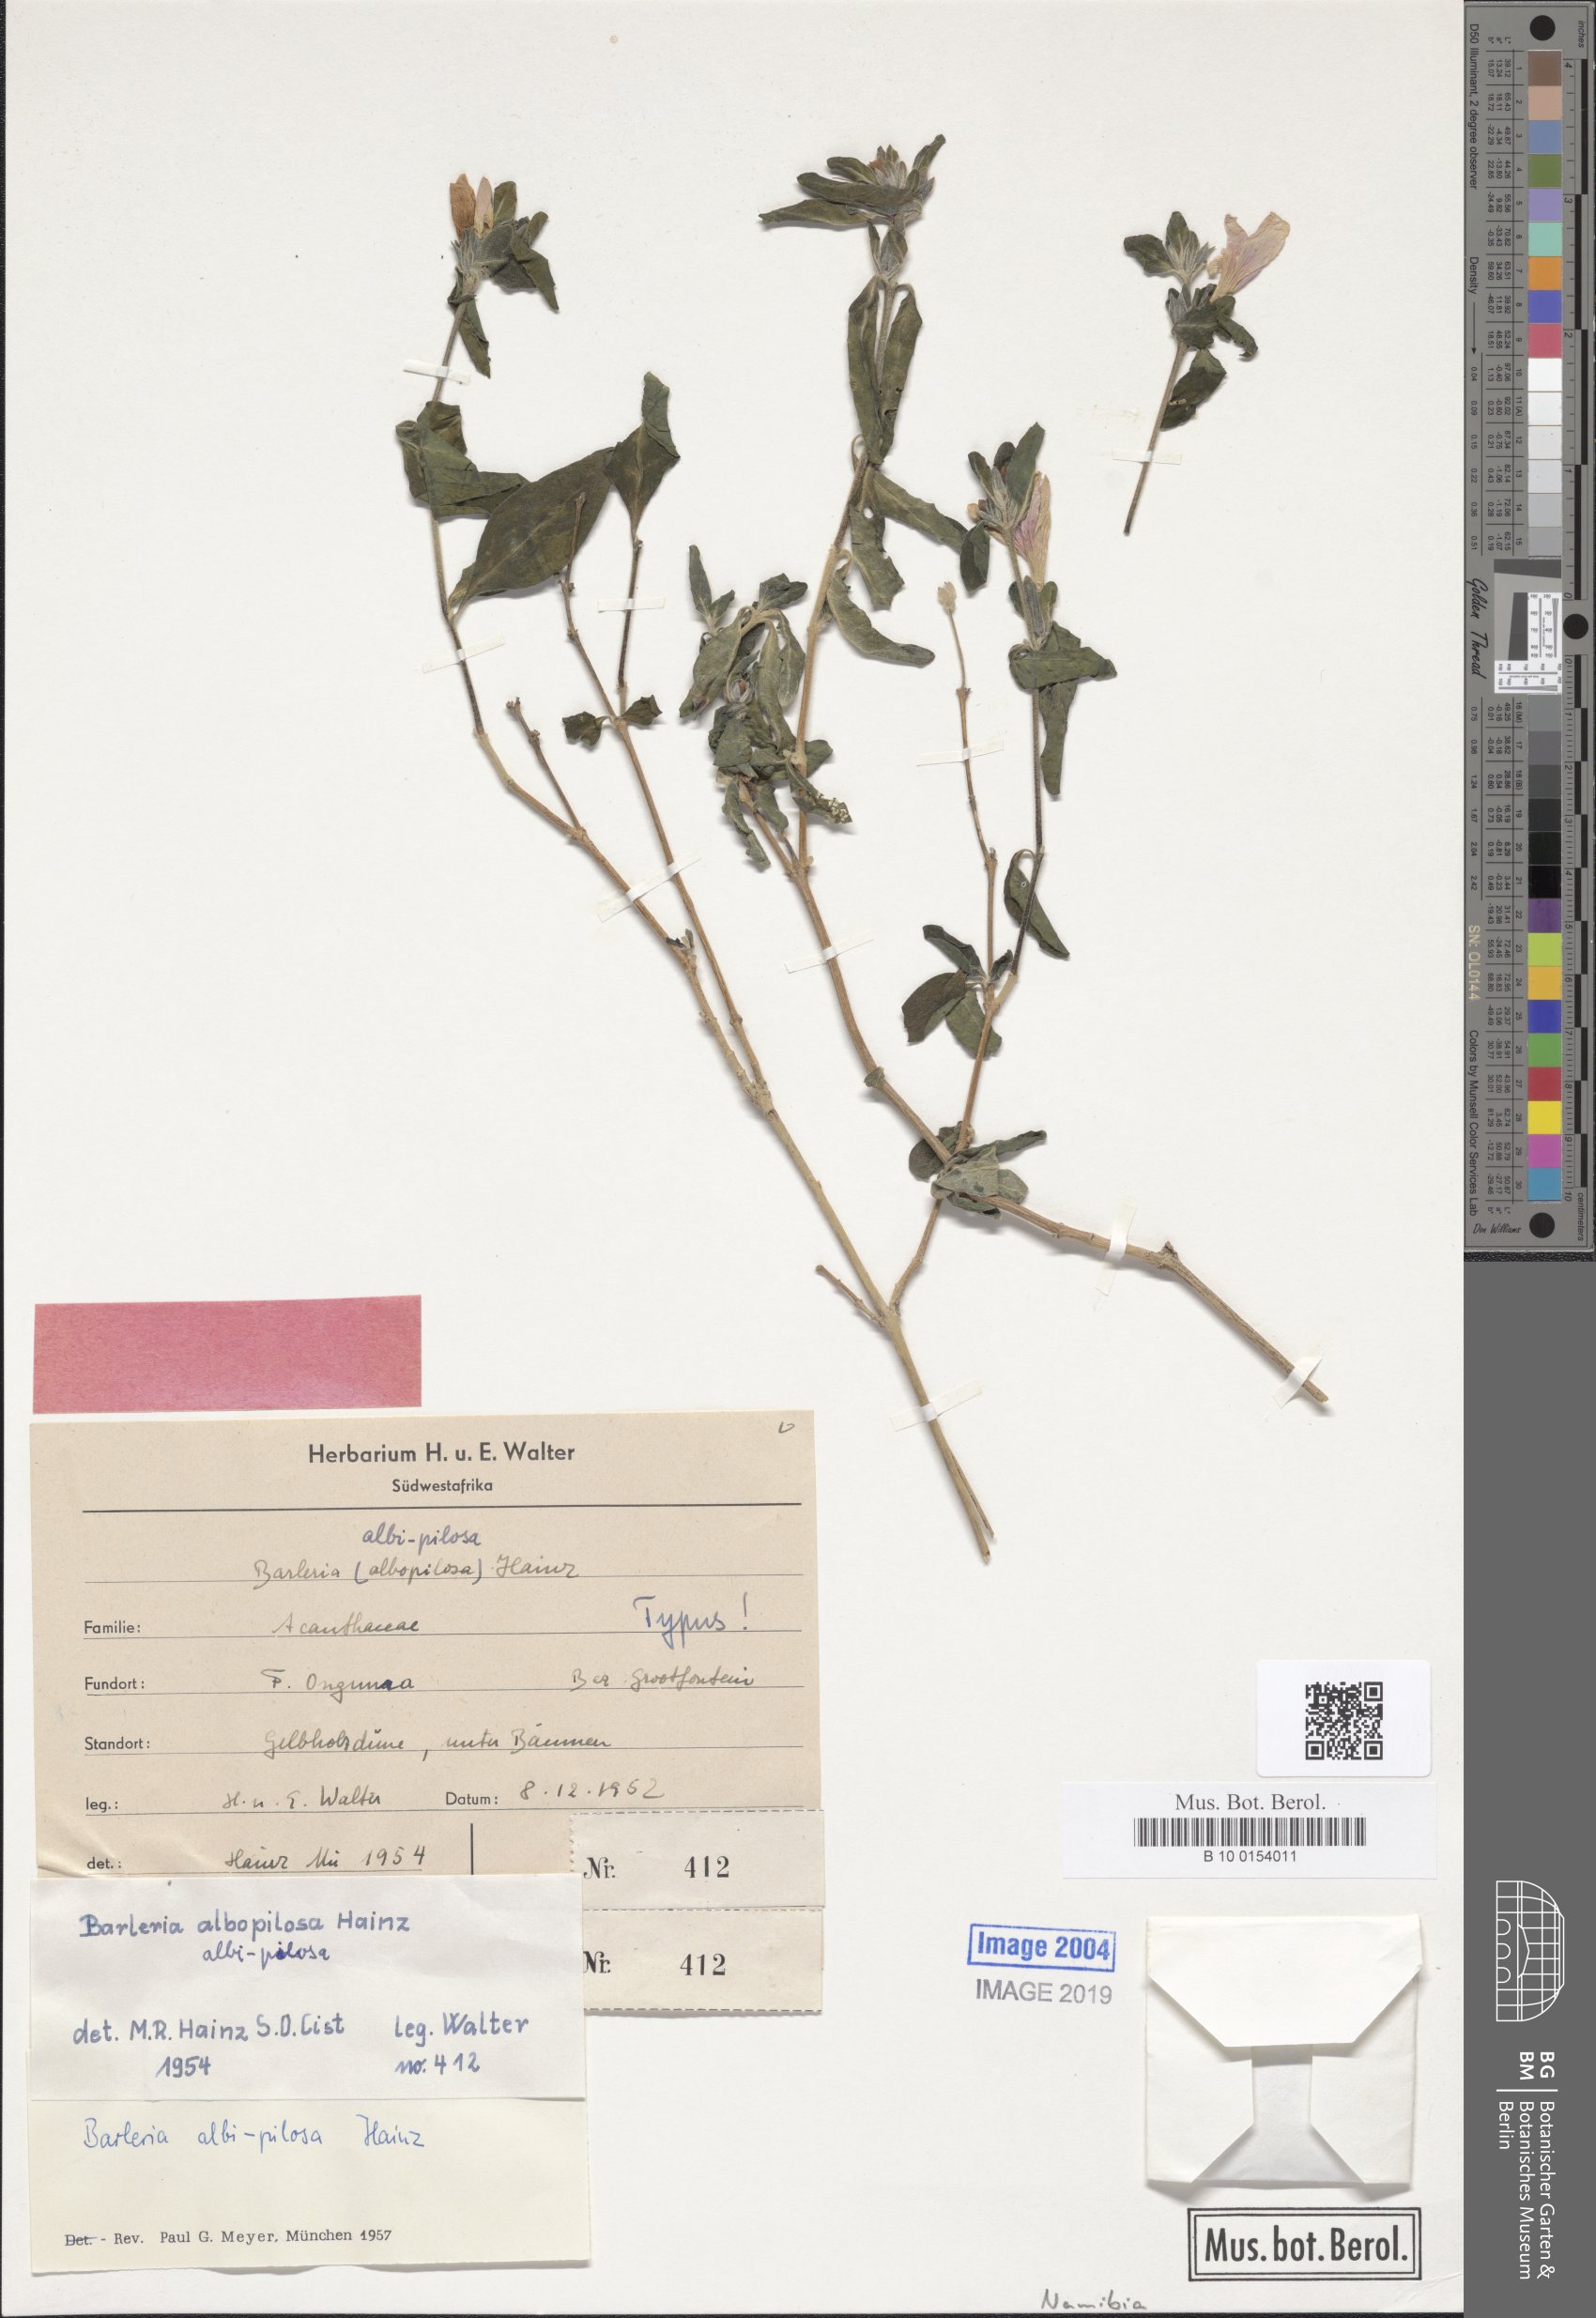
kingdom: Plantae
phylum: Tracheophyta
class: Magnoliopsida
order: Lamiales
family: Acanthaceae
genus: Barleria
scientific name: Barleria matopensis
